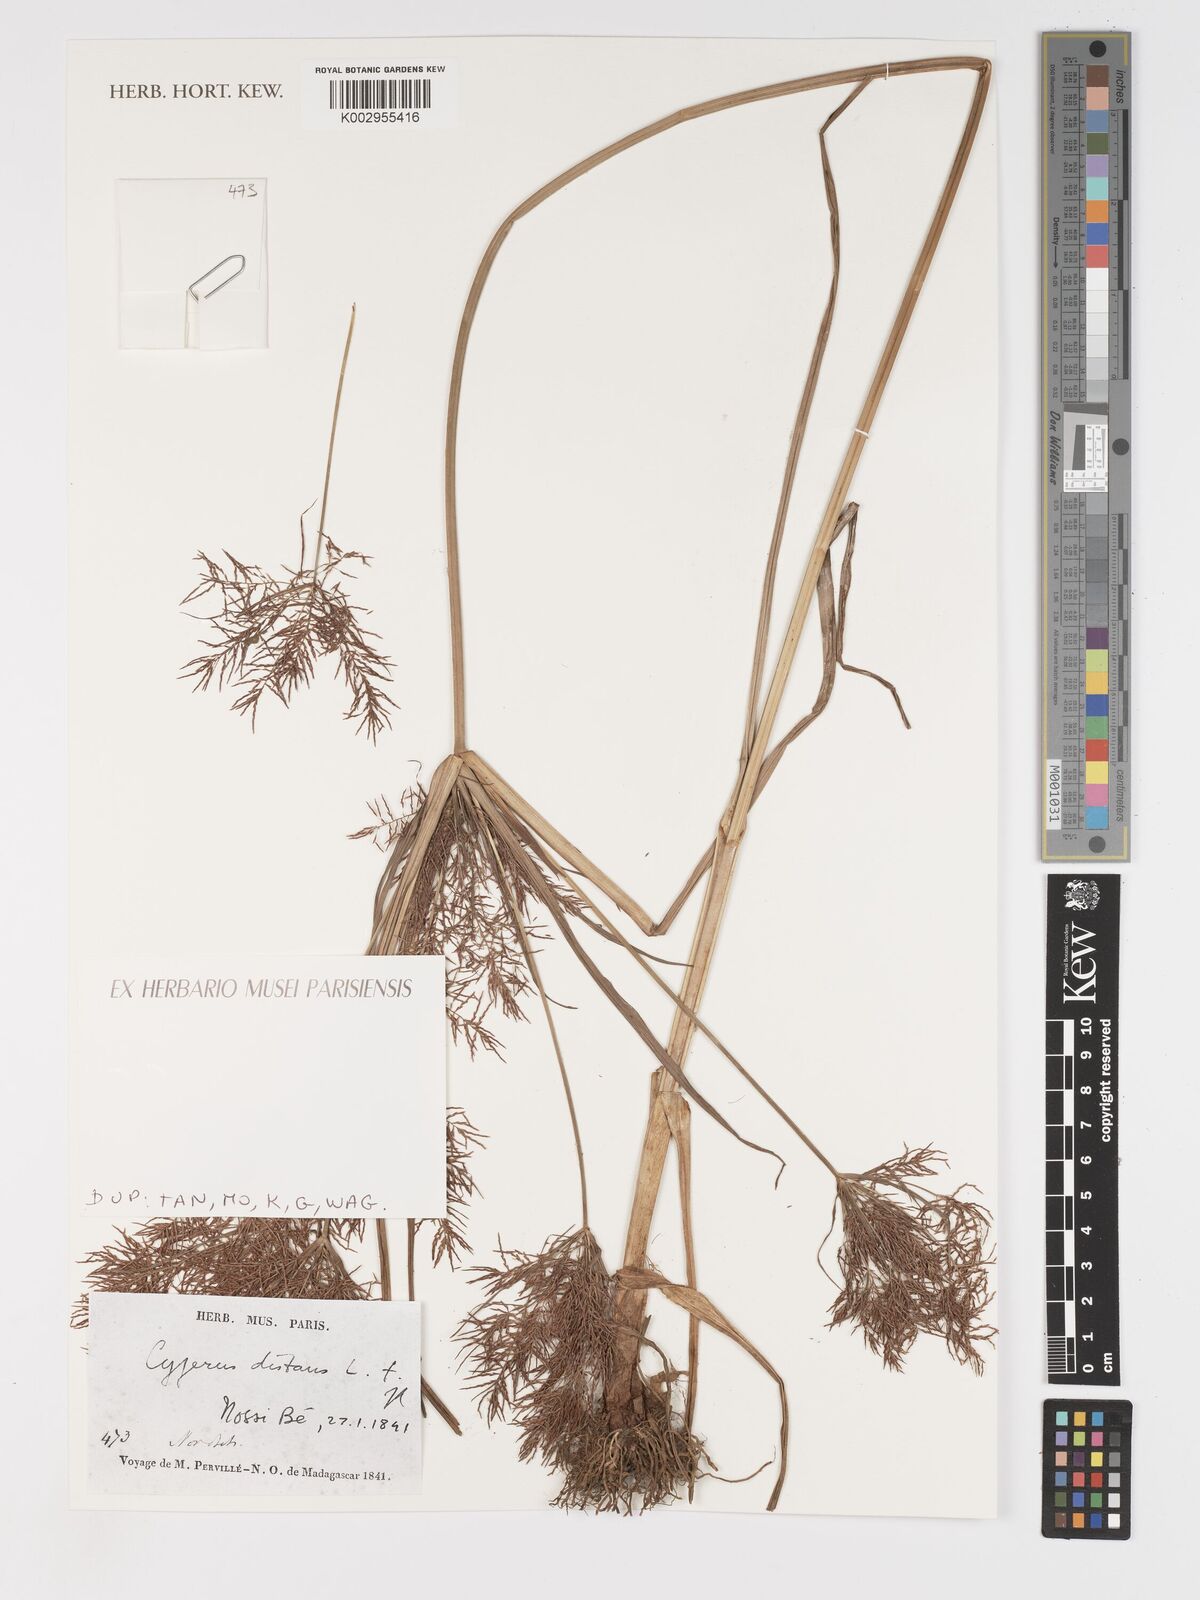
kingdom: Plantae
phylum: Tracheophyta
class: Liliopsida
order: Poales
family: Cyperaceae
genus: Cyperus
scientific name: Cyperus distans
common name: Slender cyperus
